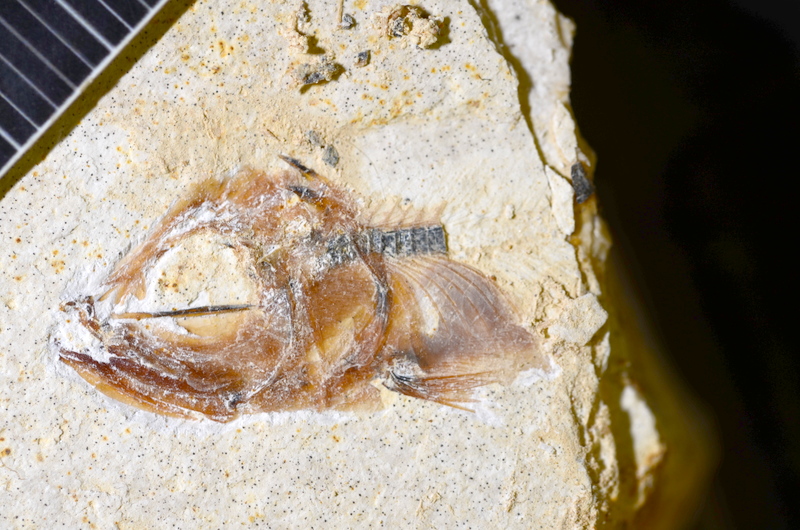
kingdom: Animalia
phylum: Chordata
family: Ascalaboidae
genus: Ebertichthys
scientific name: Ebertichthys ettlingensis
